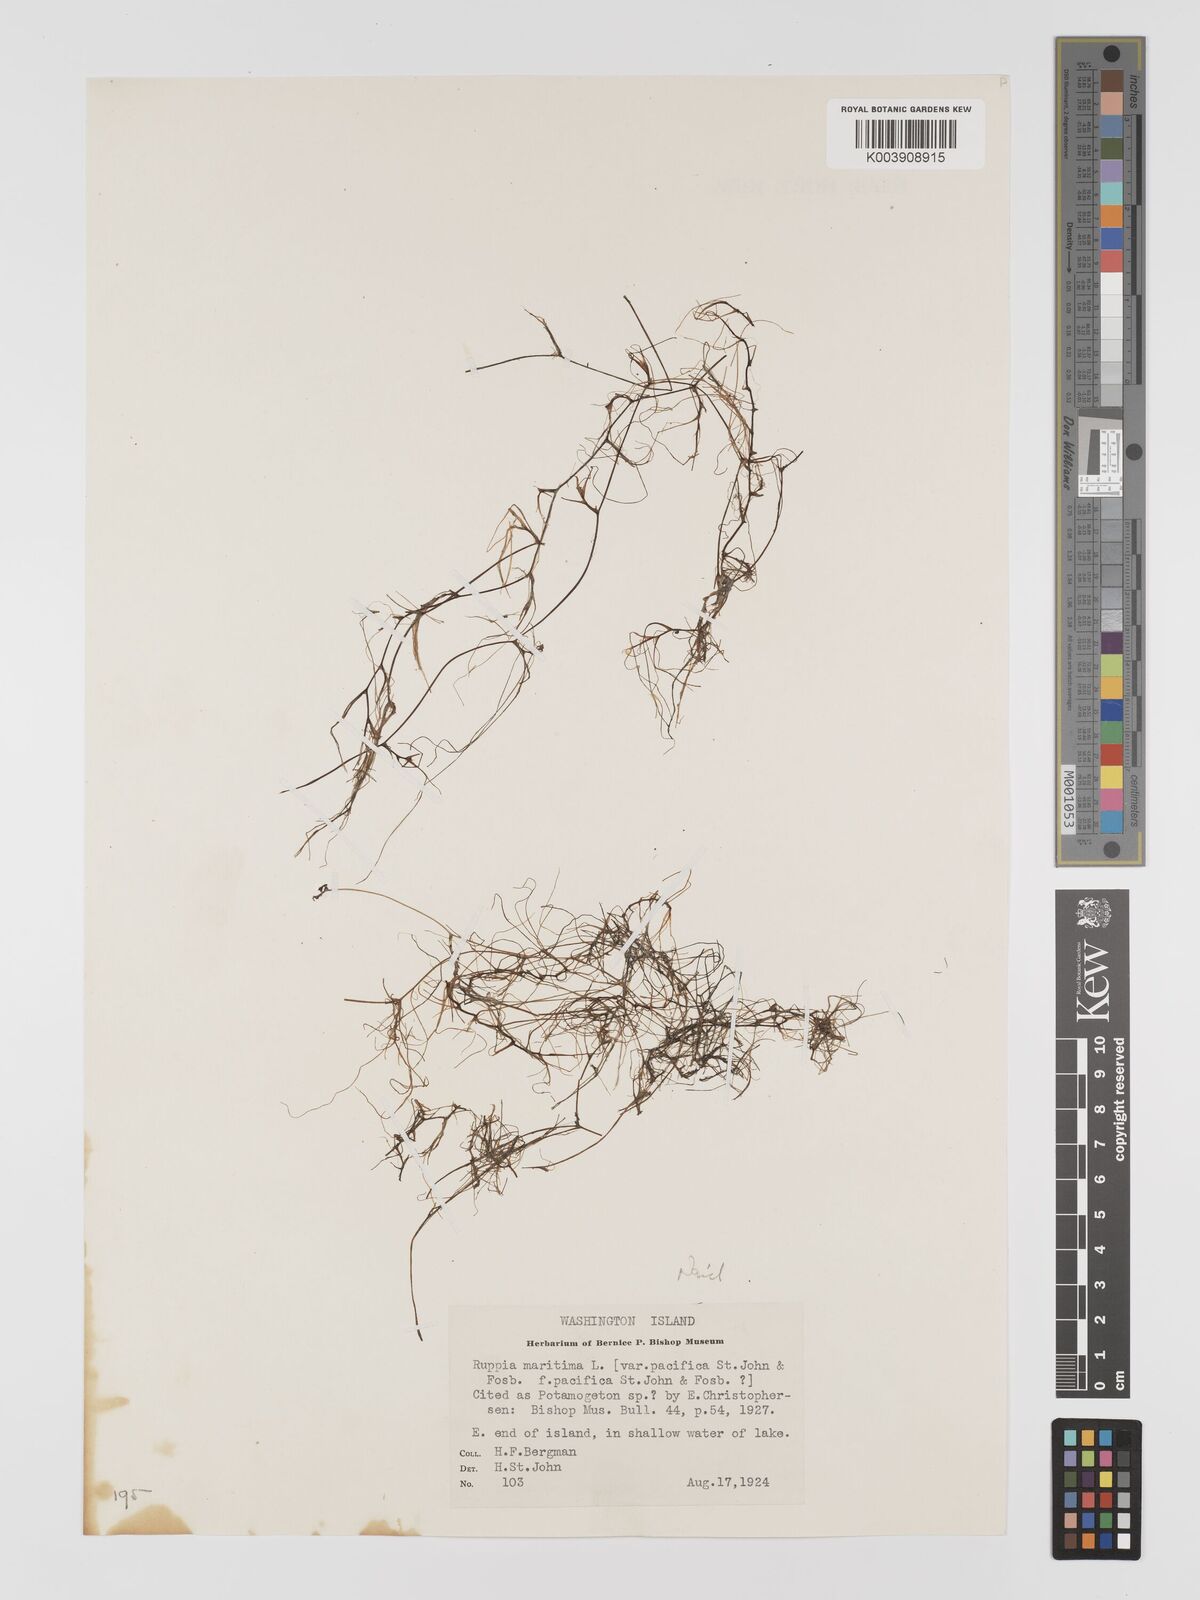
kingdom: Plantae
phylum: Tracheophyta
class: Liliopsida
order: Alismatales
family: Ruppiaceae
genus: Ruppia
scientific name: Ruppia maritima
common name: Beaked tasselweed
